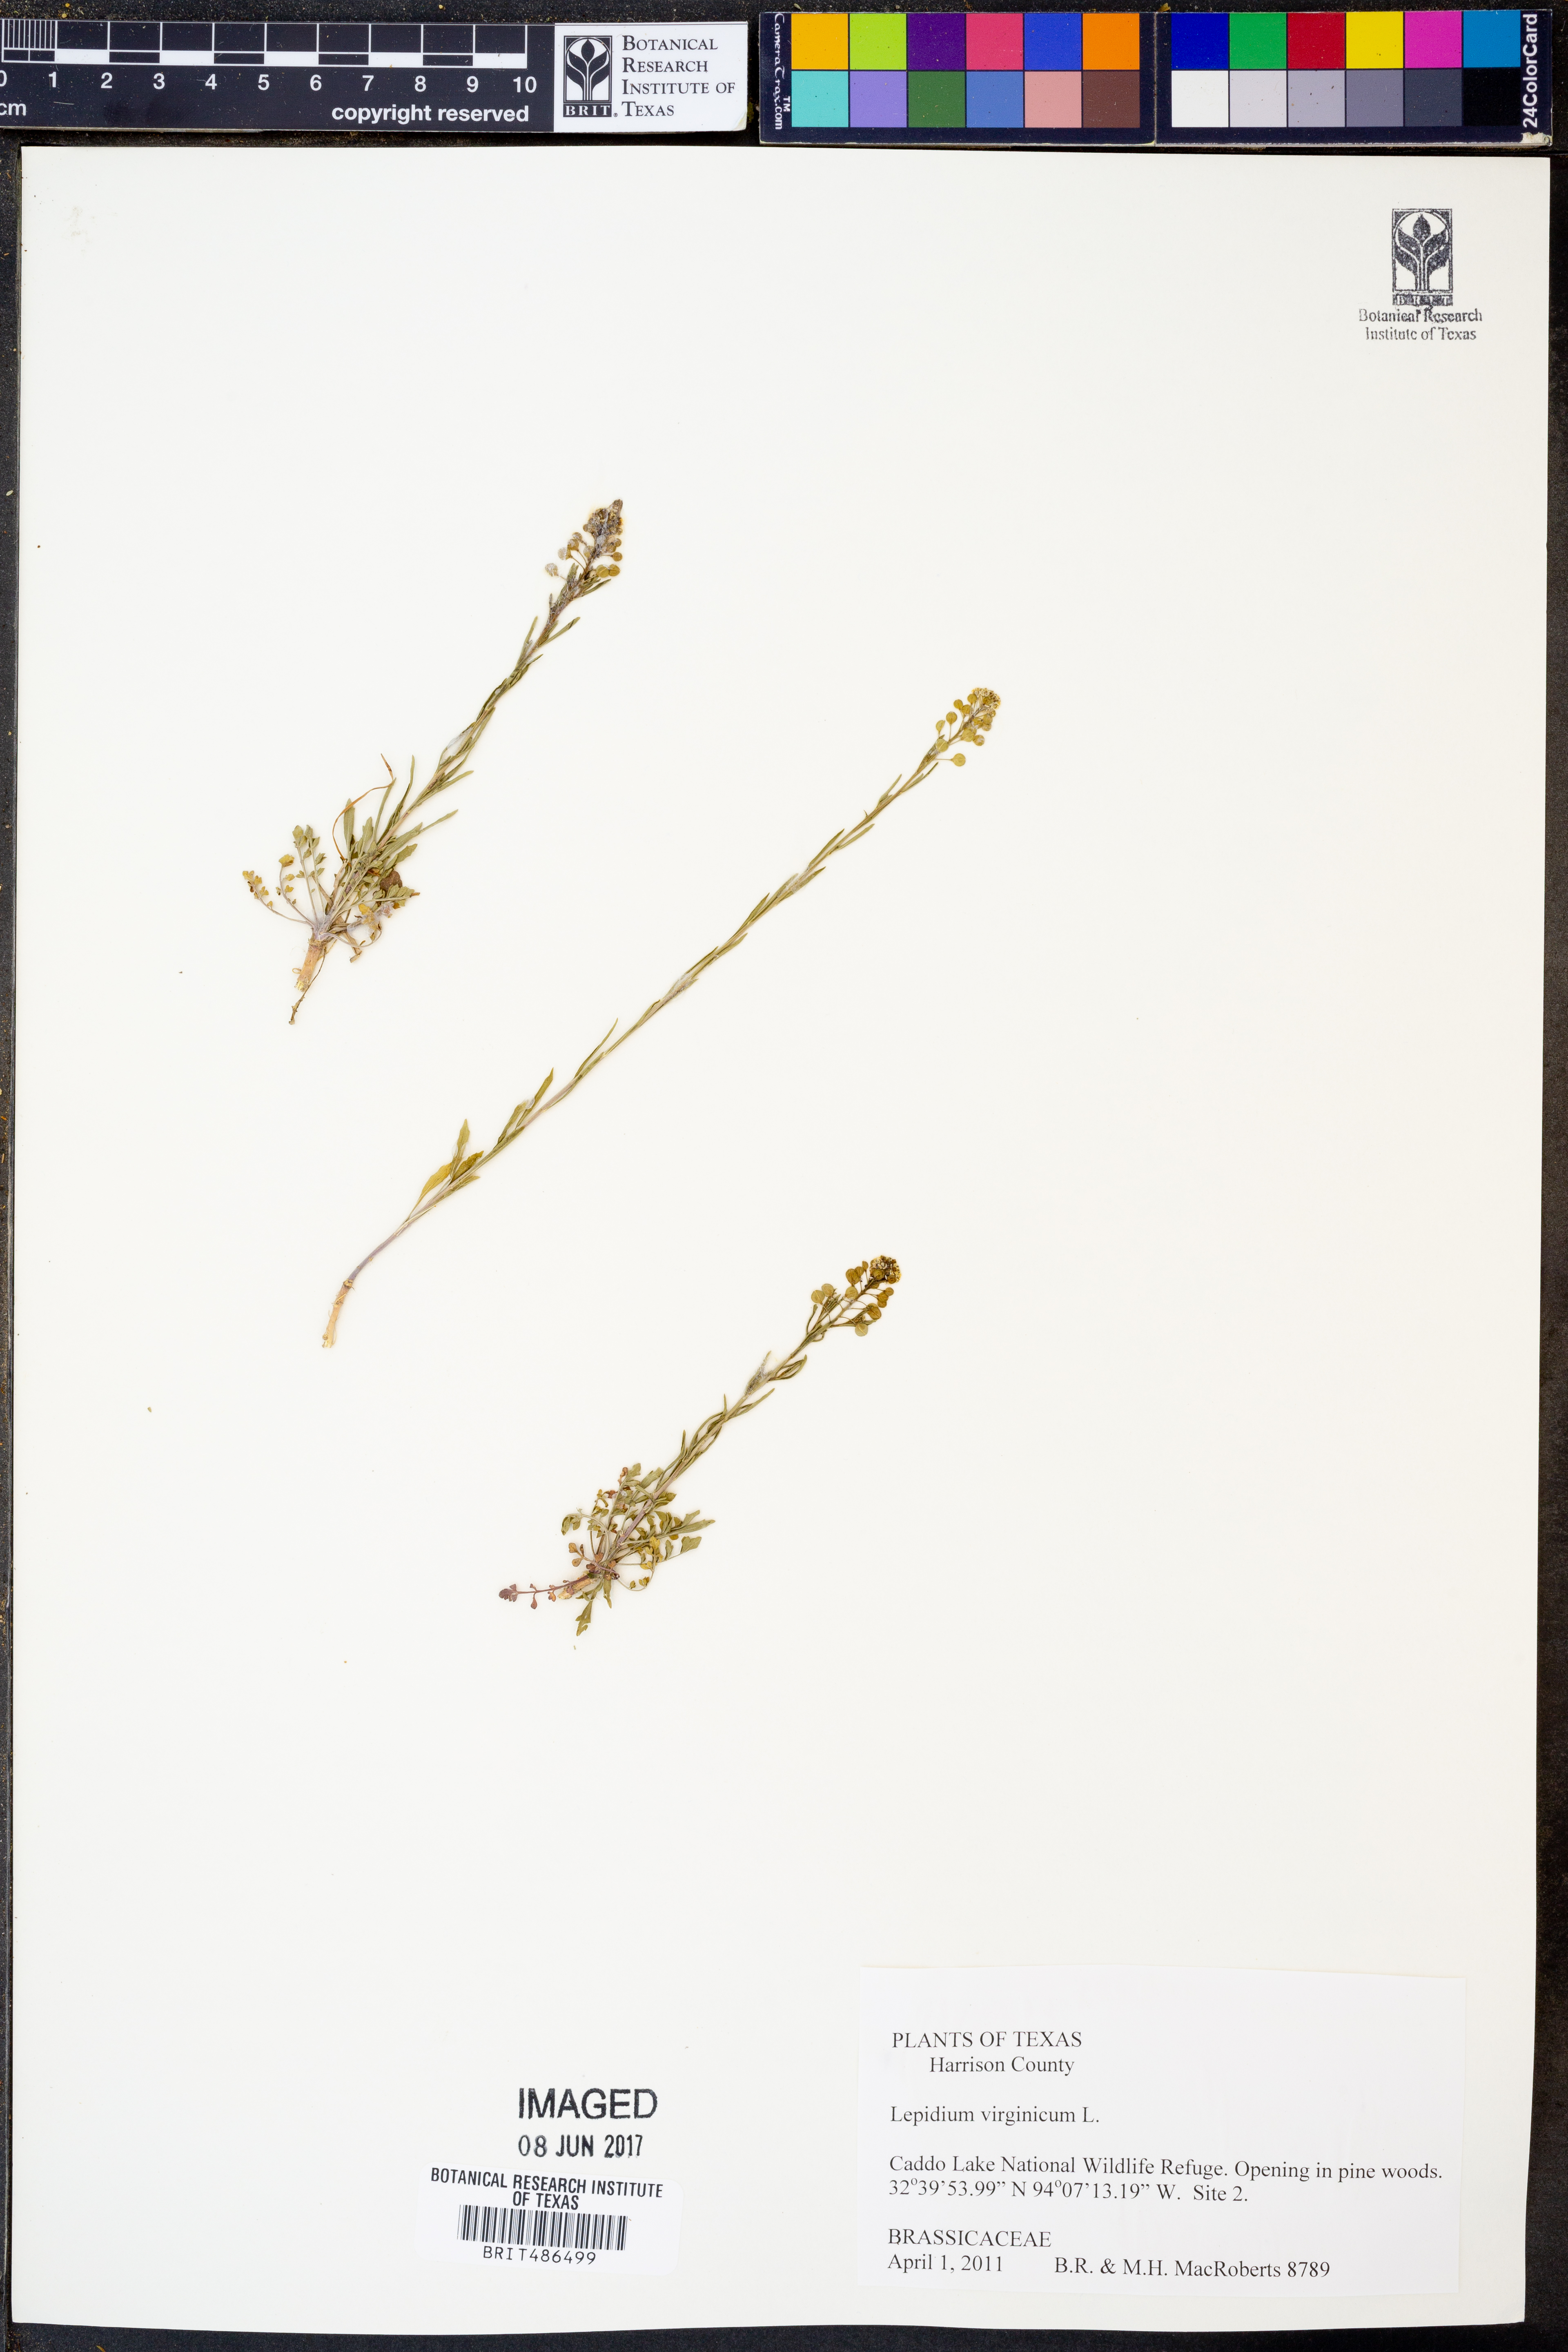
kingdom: Plantae
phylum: Tracheophyta
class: Magnoliopsida
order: Brassicales
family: Brassicaceae
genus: Lepidium
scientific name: Lepidium virginicum
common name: Least pepperwort
